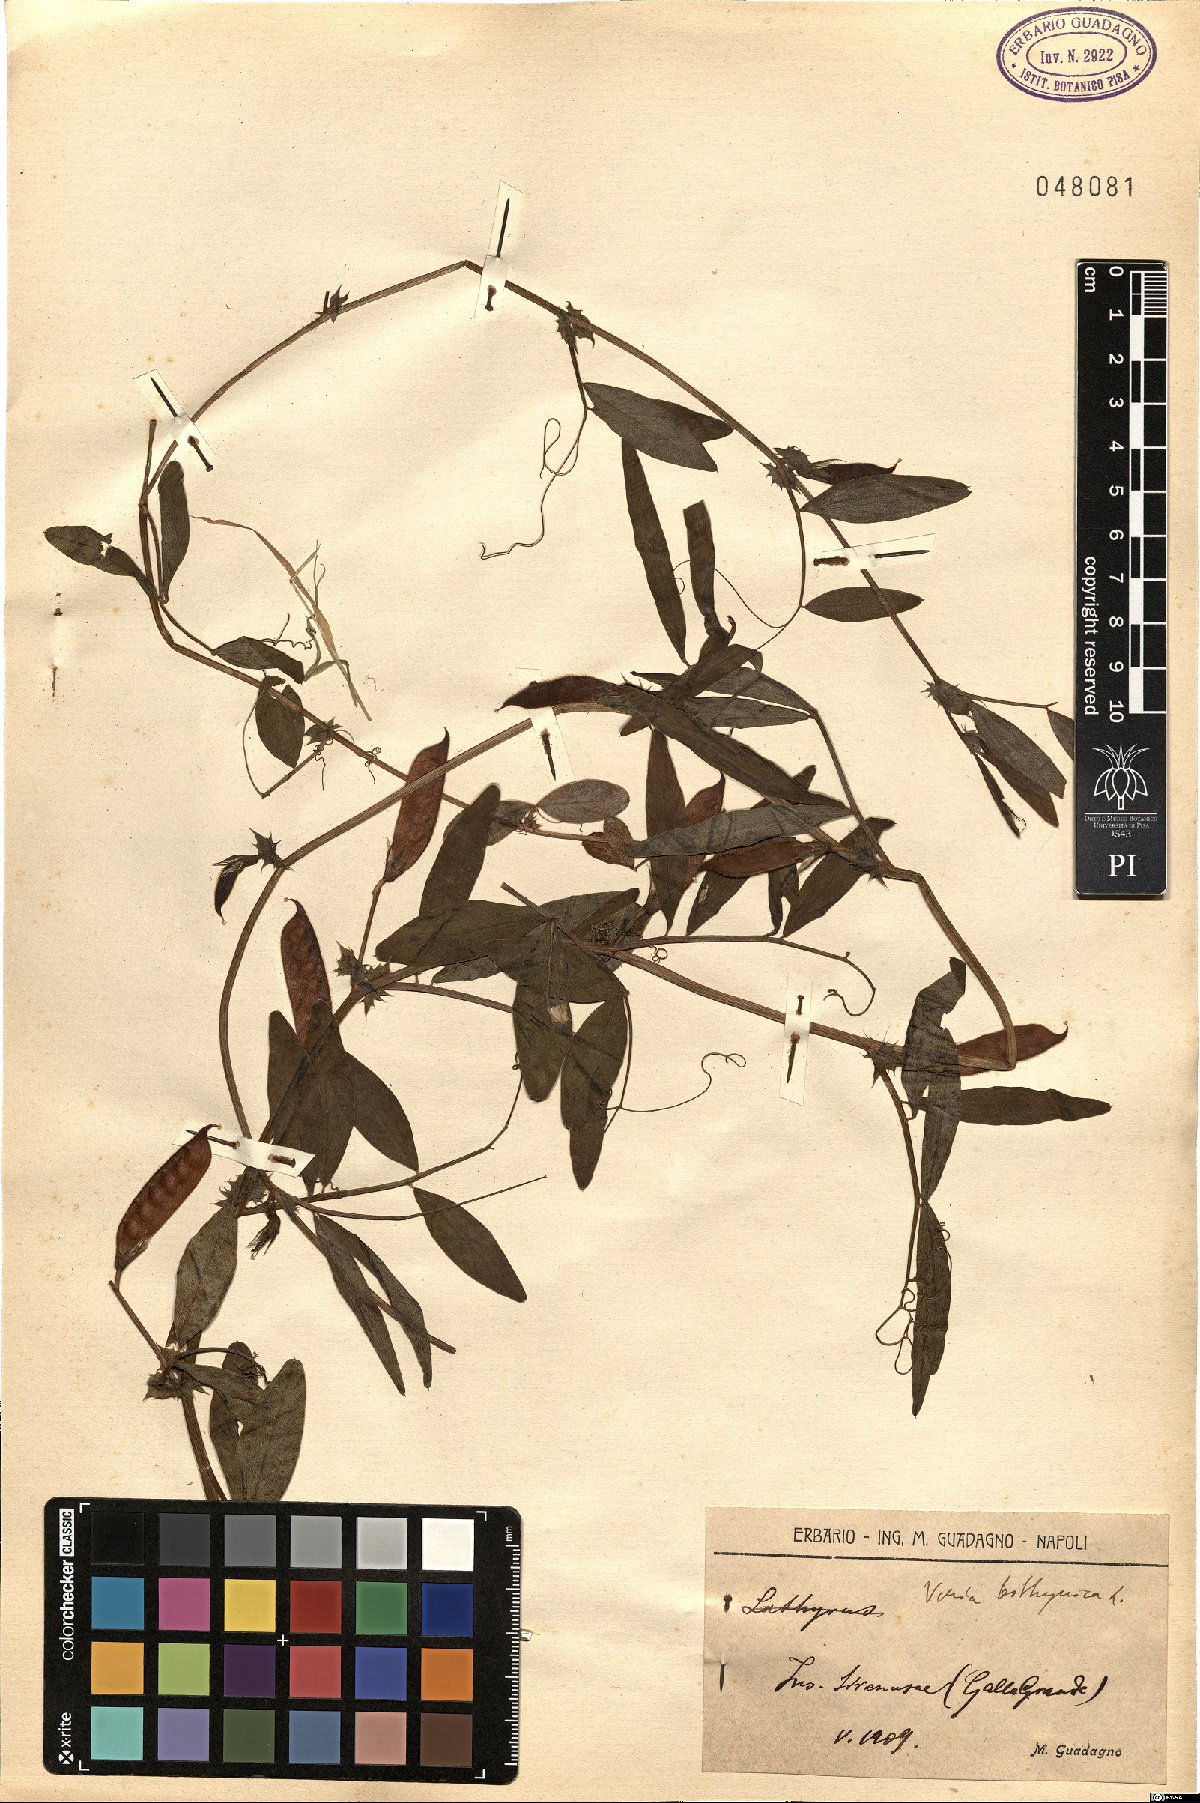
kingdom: Plantae
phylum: Tracheophyta
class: Magnoliopsida
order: Fabales
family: Fabaceae
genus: Vicia
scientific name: Vicia bithynica
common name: Bithynian vetch
